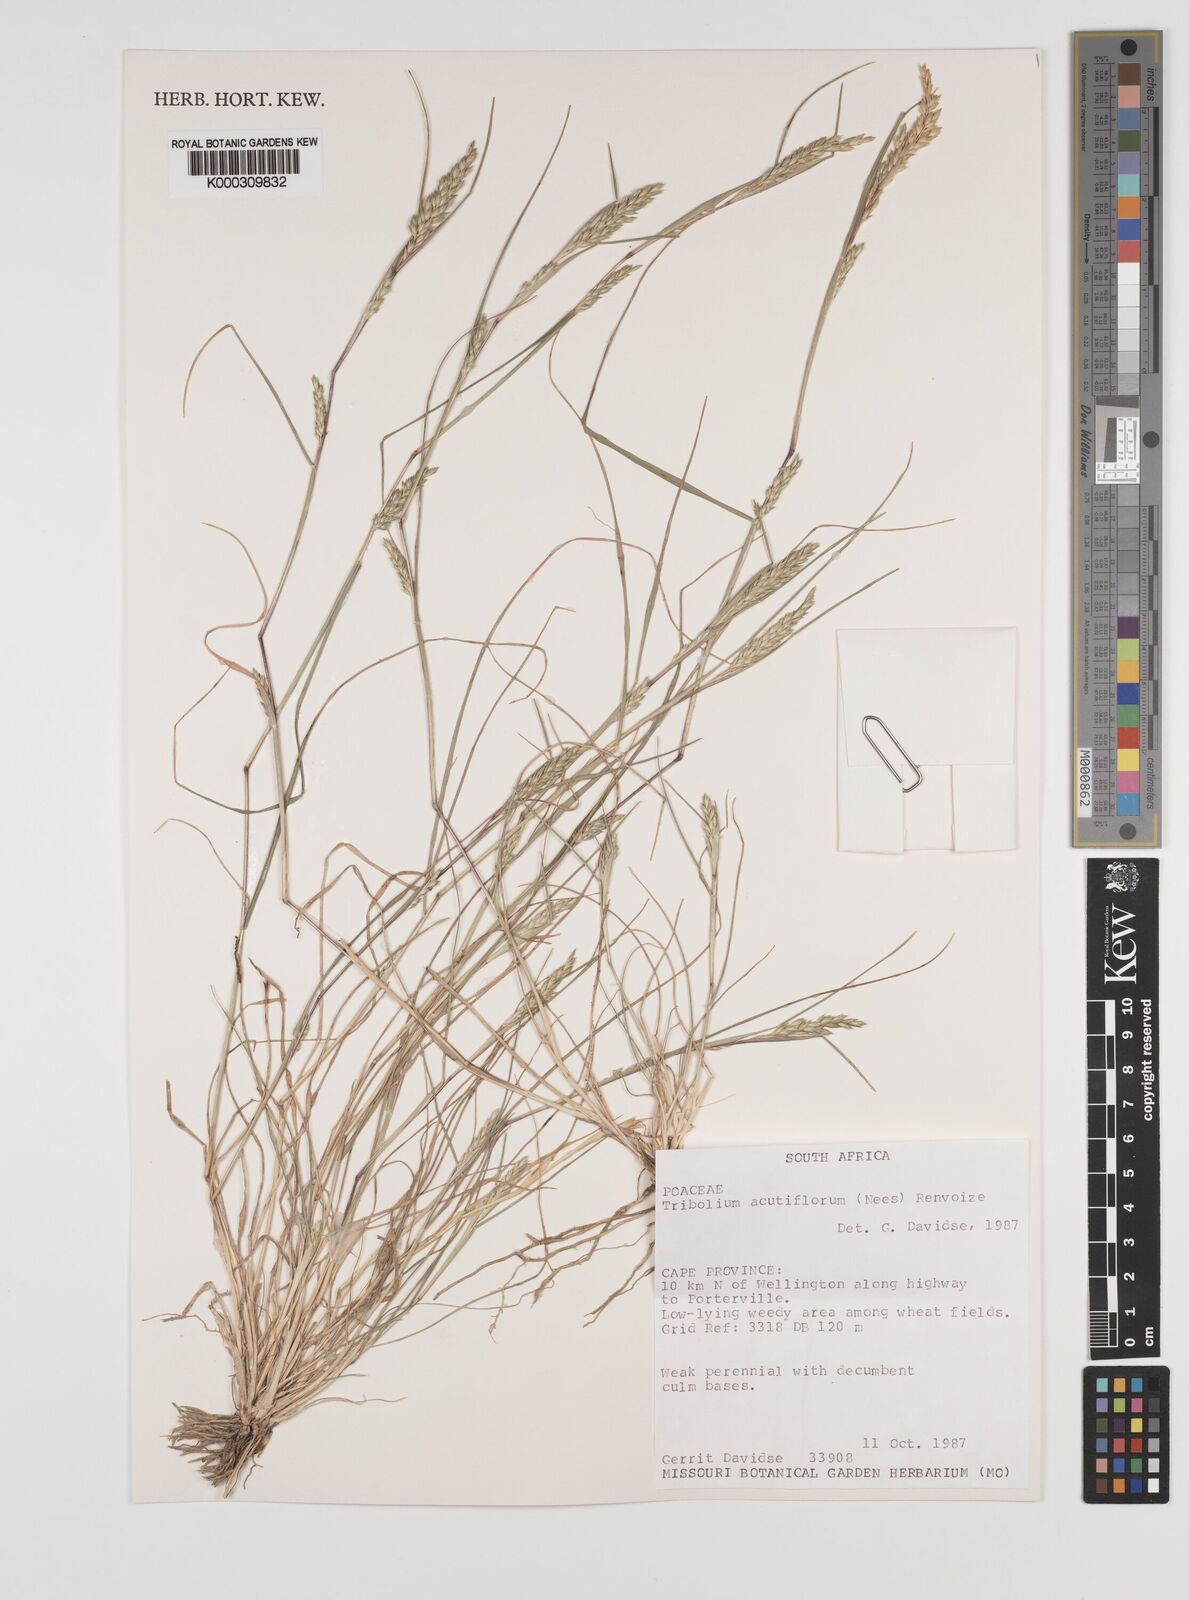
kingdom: Plantae
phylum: Tracheophyta
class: Liliopsida
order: Poales
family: Poaceae
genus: Tribolium
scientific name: Tribolium acutiflorum
